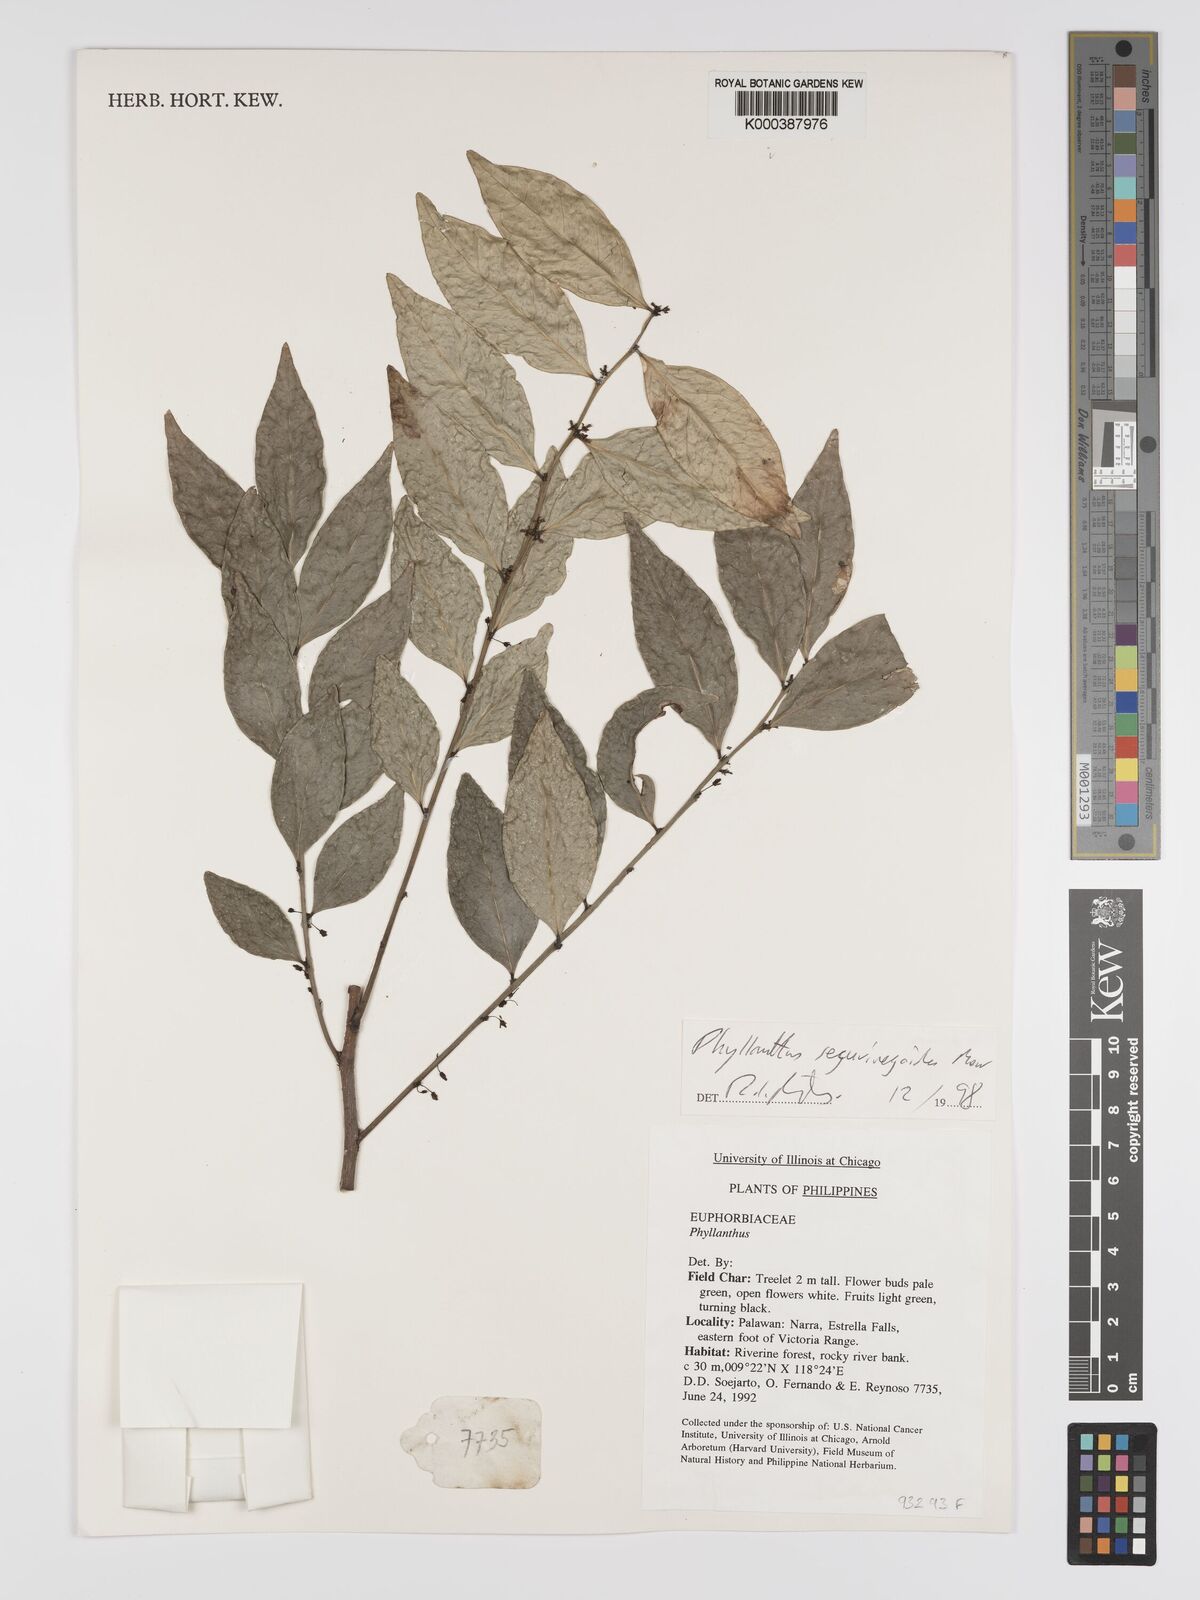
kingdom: Plantae
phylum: Tracheophyta
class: Magnoliopsida
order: Malpighiales
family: Phyllanthaceae
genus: Phyllanthus
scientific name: Phyllanthus securinegoides
